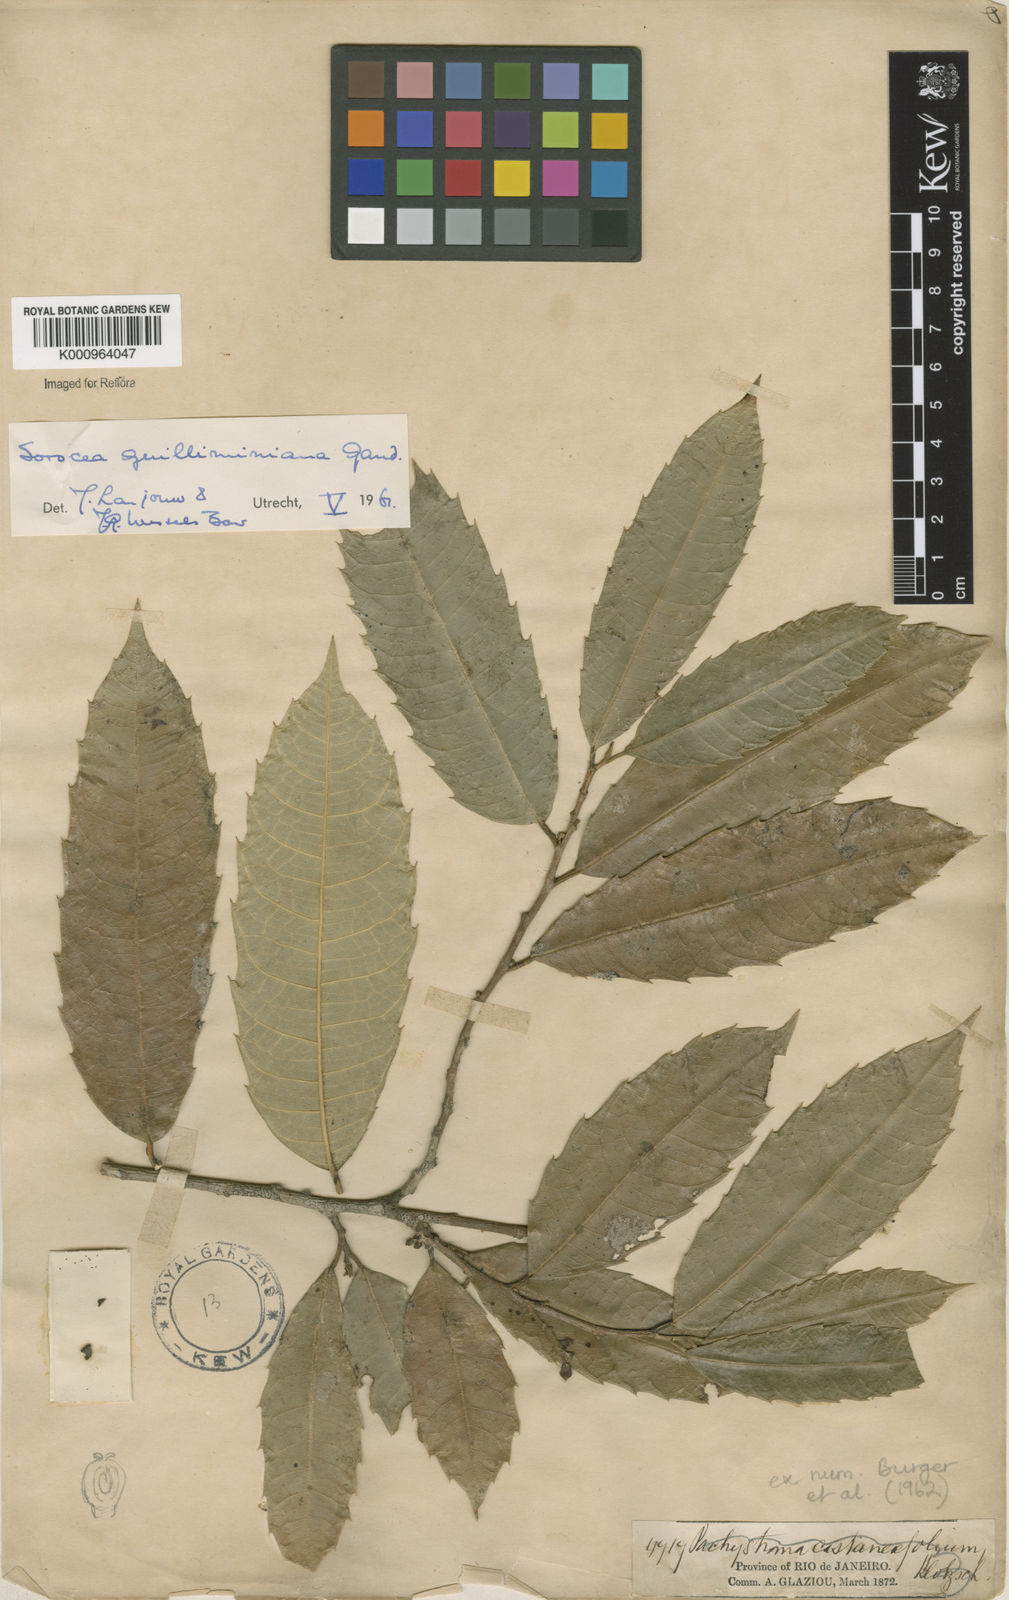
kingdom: Plantae
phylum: Tracheophyta
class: Magnoliopsida
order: Rosales
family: Moraceae
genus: Sorocea
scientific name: Sorocea guilleminiana
